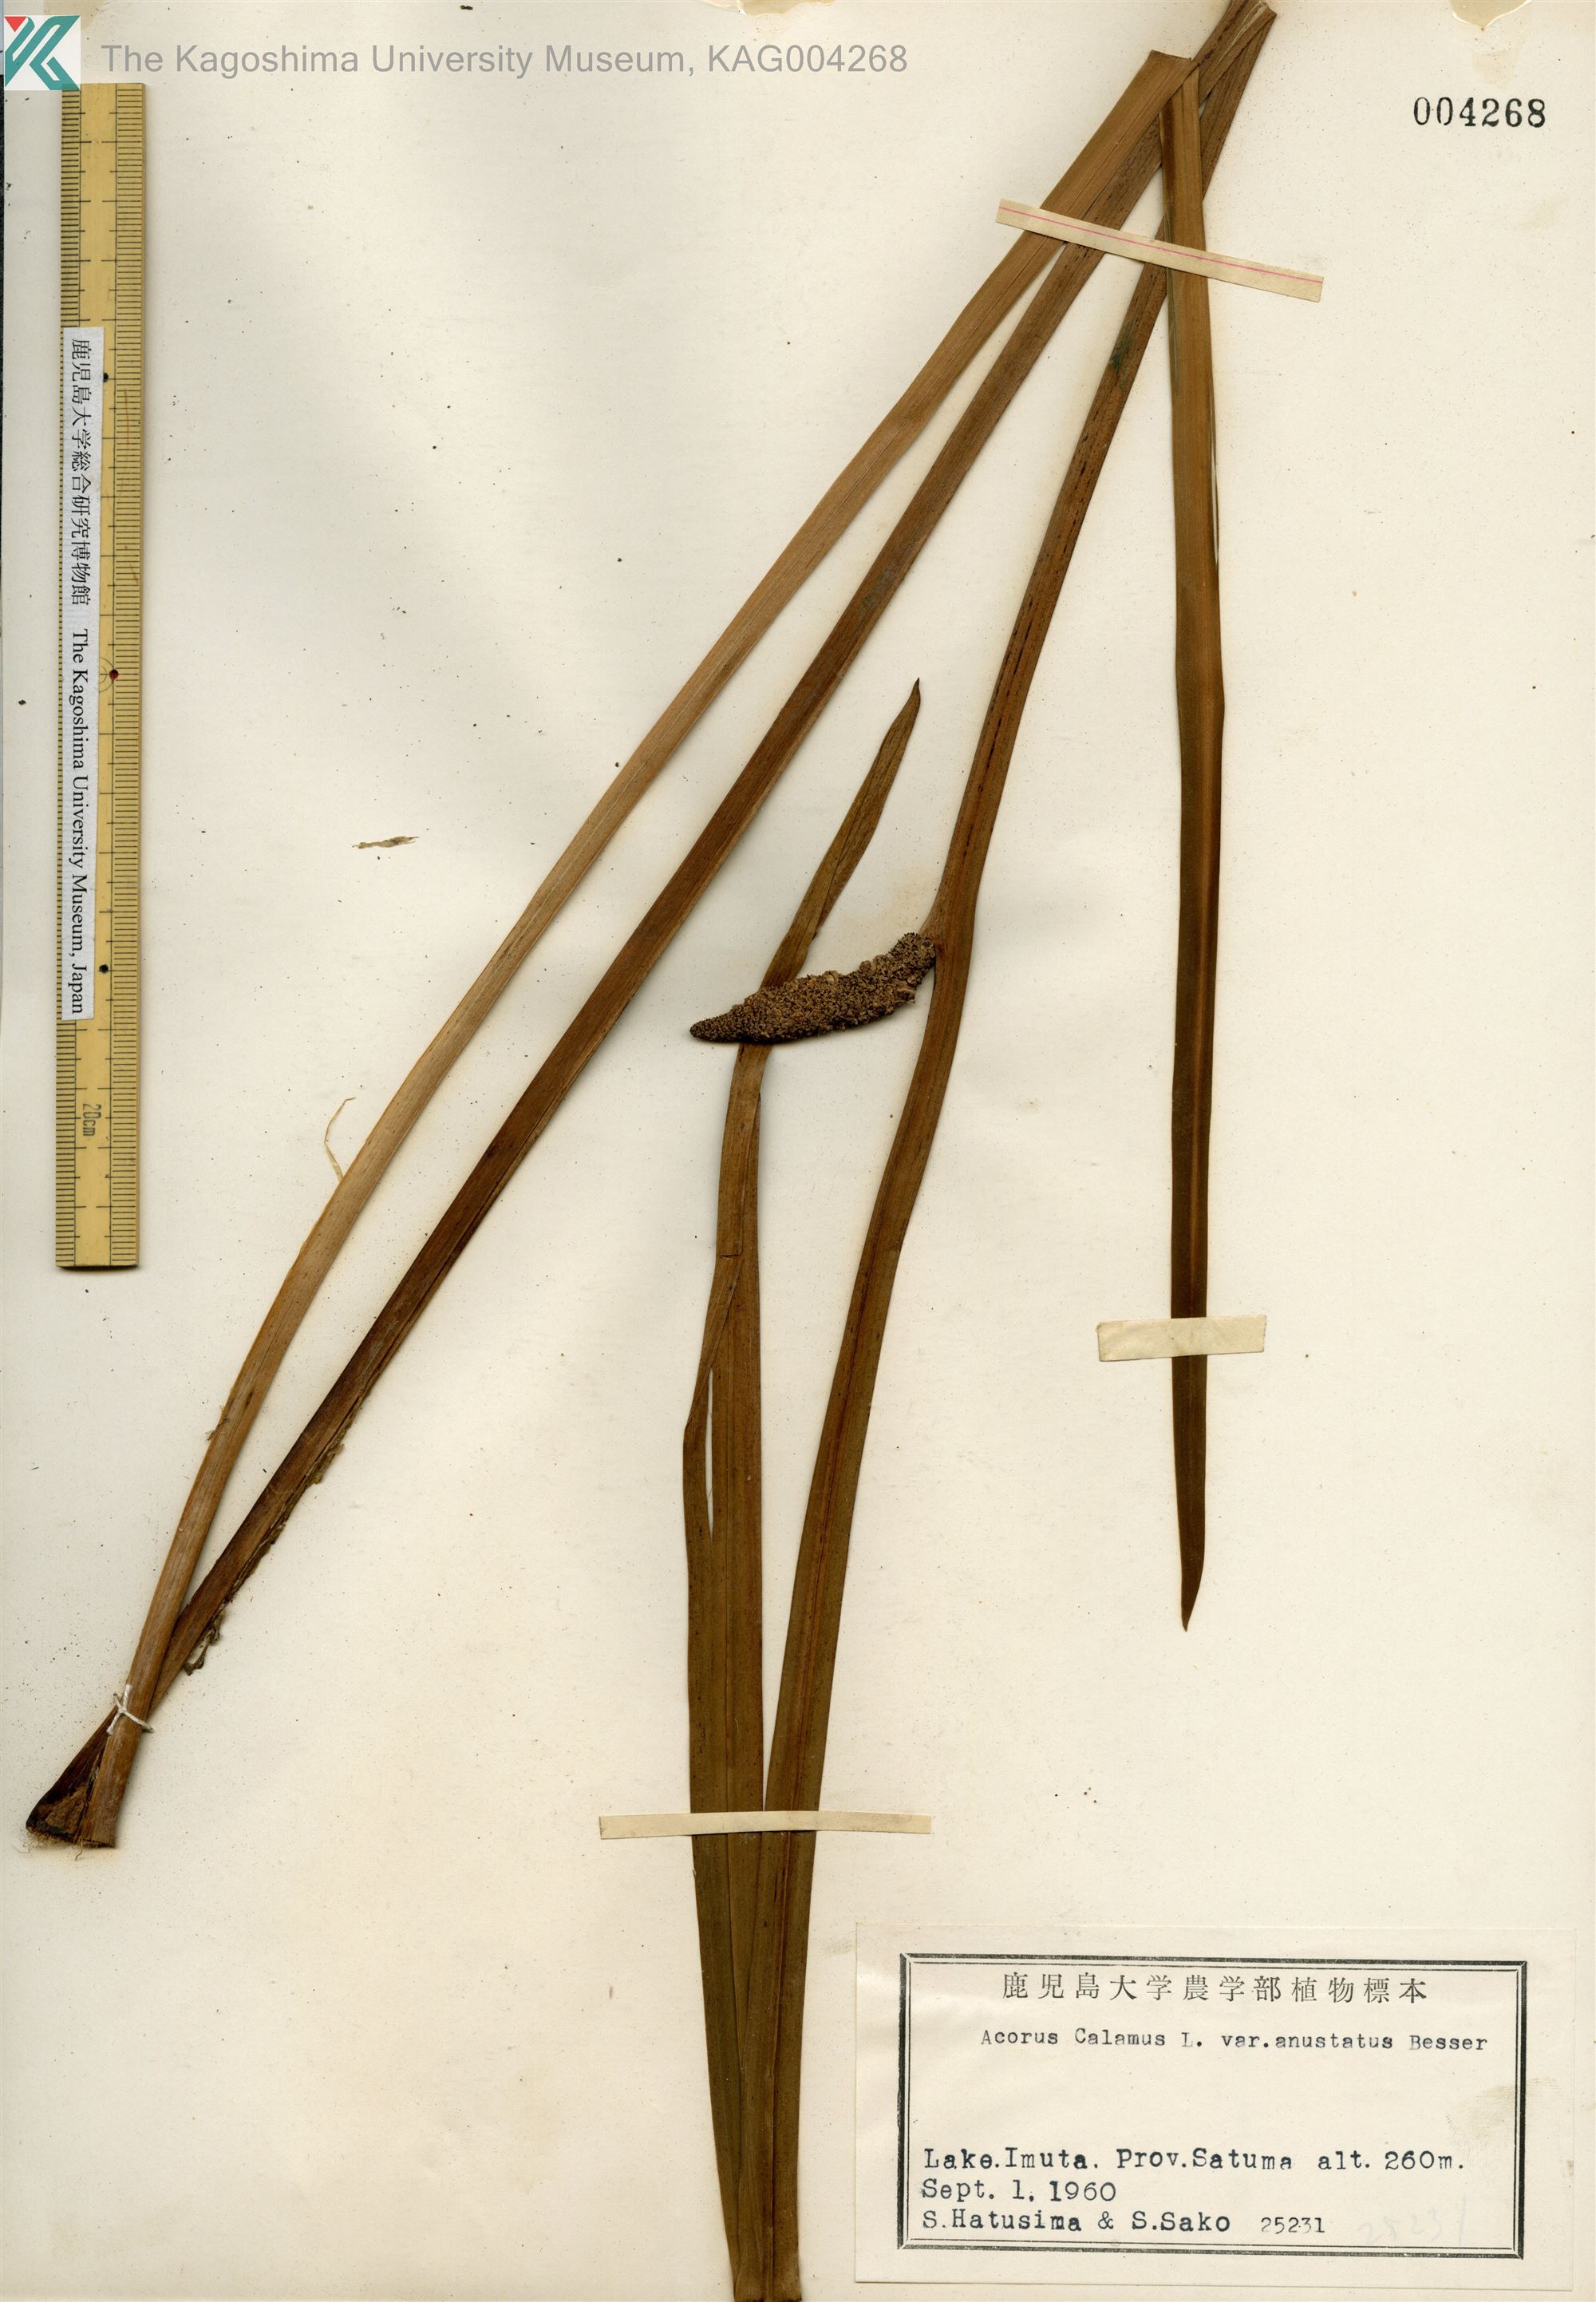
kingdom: Plantae
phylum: Tracheophyta
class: Liliopsida
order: Acorales
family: Acoraceae
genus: Acorus
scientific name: Acorus calamus
